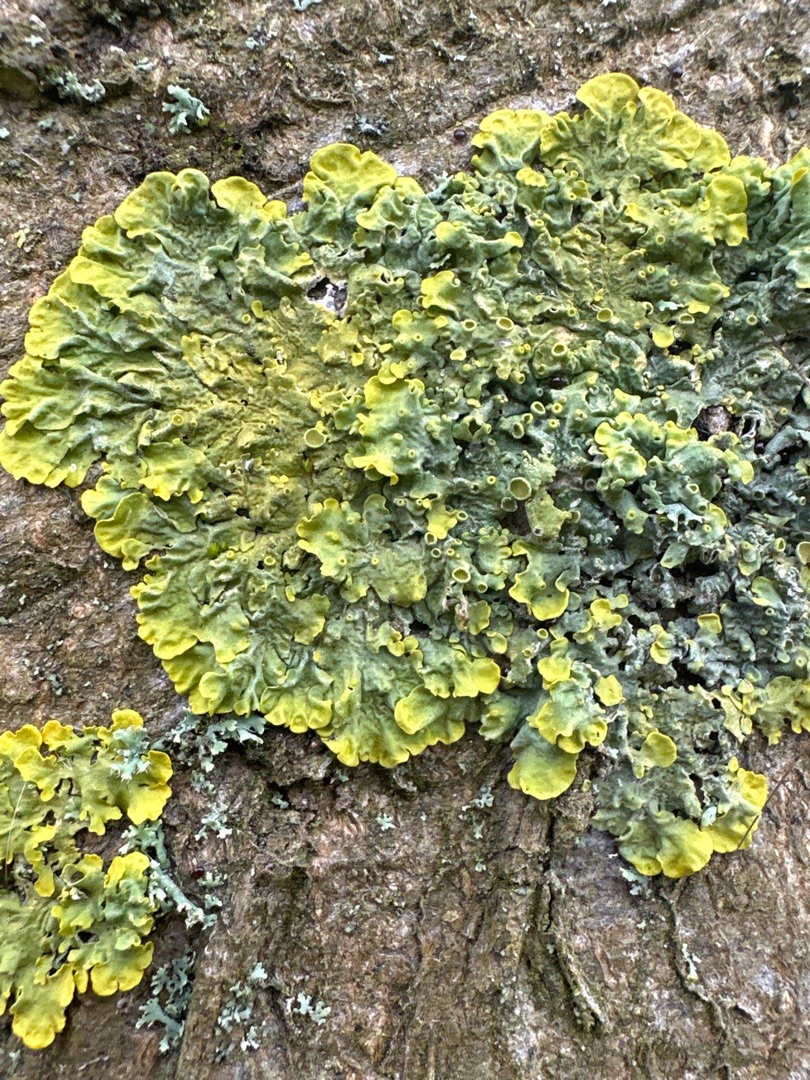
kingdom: Fungi
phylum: Ascomycota
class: Lecanoromycetes
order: Teloschistales
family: Teloschistaceae
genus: Xanthoria
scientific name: Xanthoria parietina
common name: Almindelig væggelav
